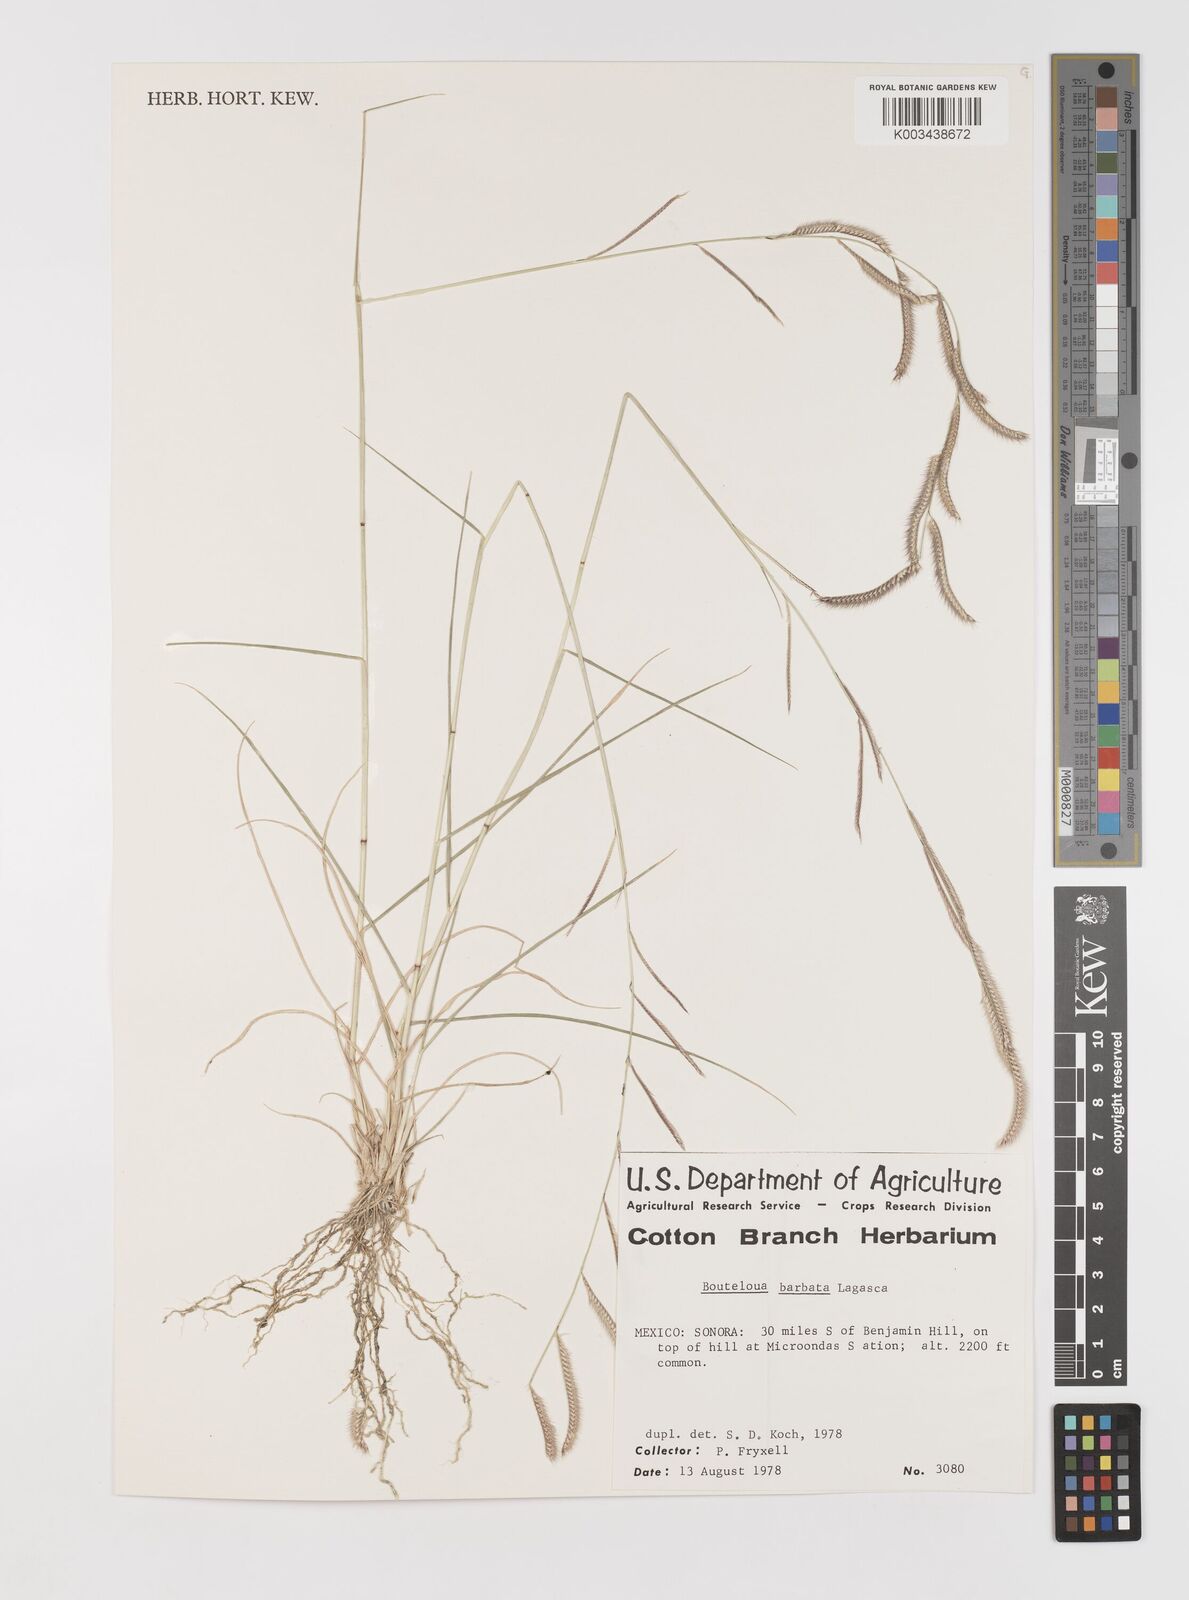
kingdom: Plantae
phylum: Tracheophyta
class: Liliopsida
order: Poales
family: Poaceae
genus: Bouteloua
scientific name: Bouteloua
